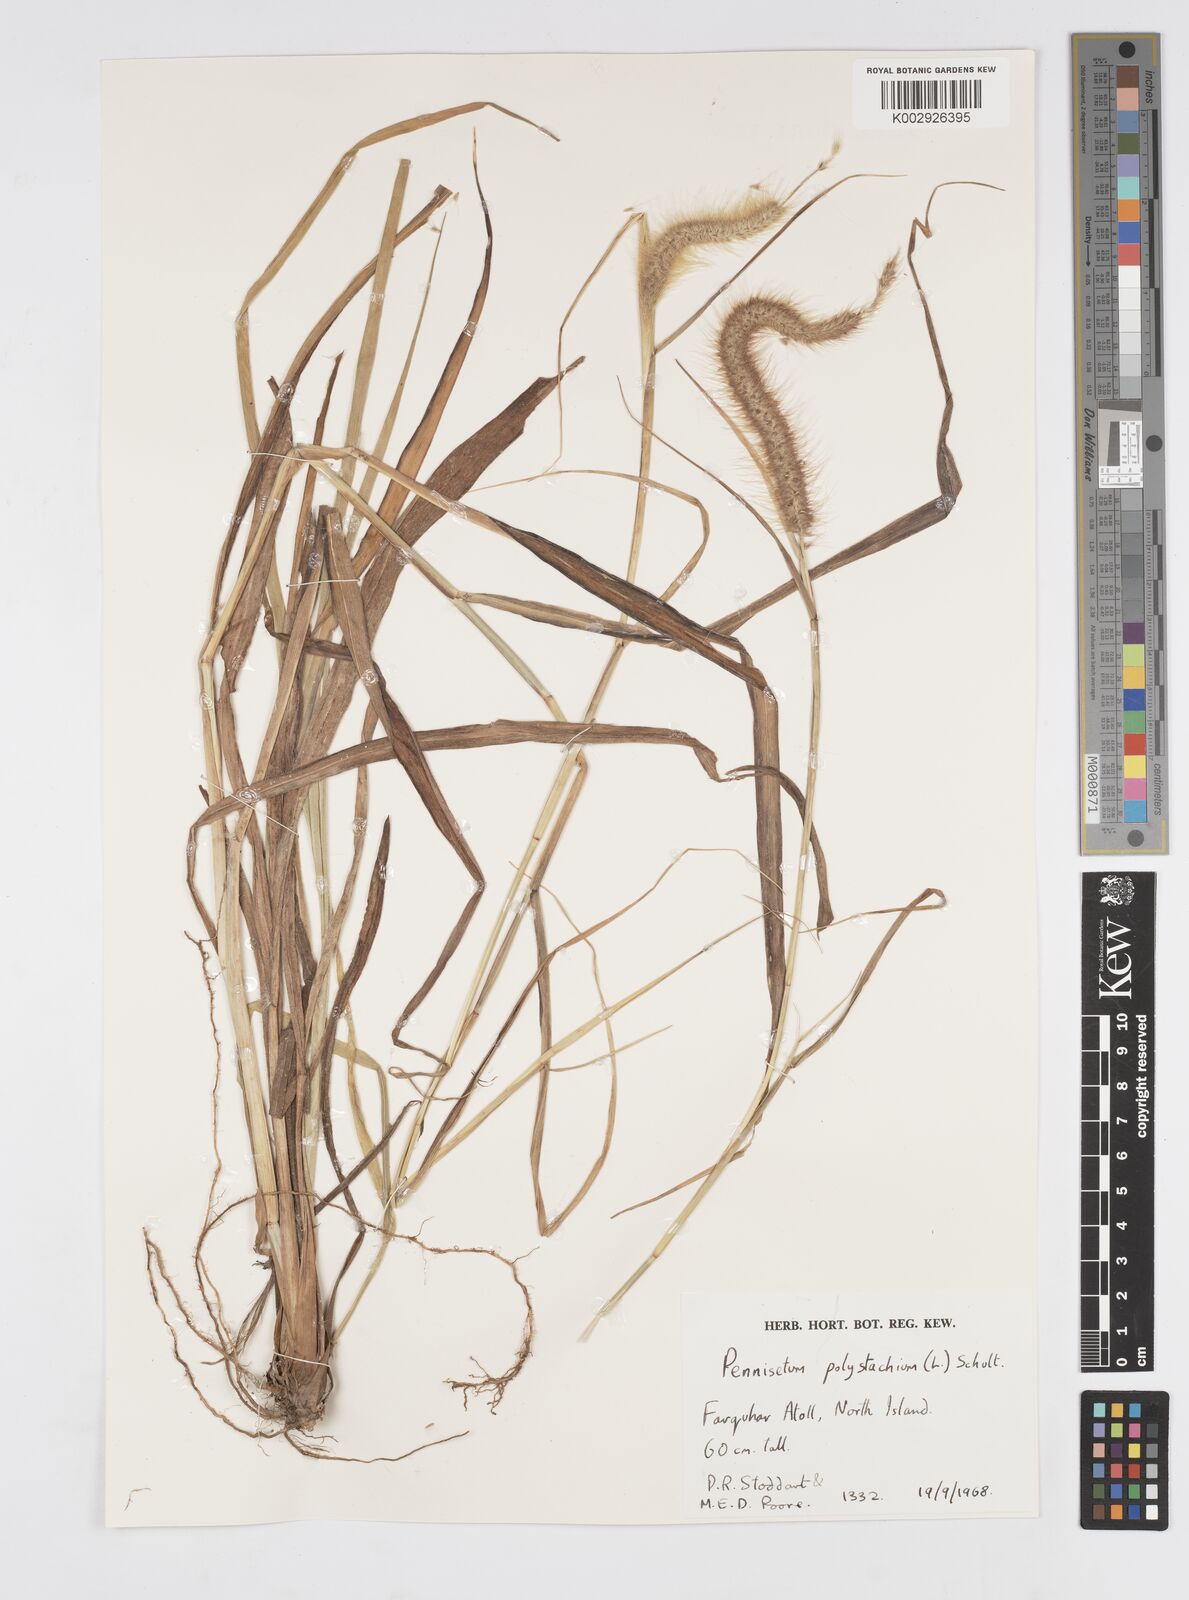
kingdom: Plantae
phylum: Tracheophyta
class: Liliopsida
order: Poales
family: Poaceae
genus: Setaria
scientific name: Setaria parviflora
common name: Knotroot bristle-grass
